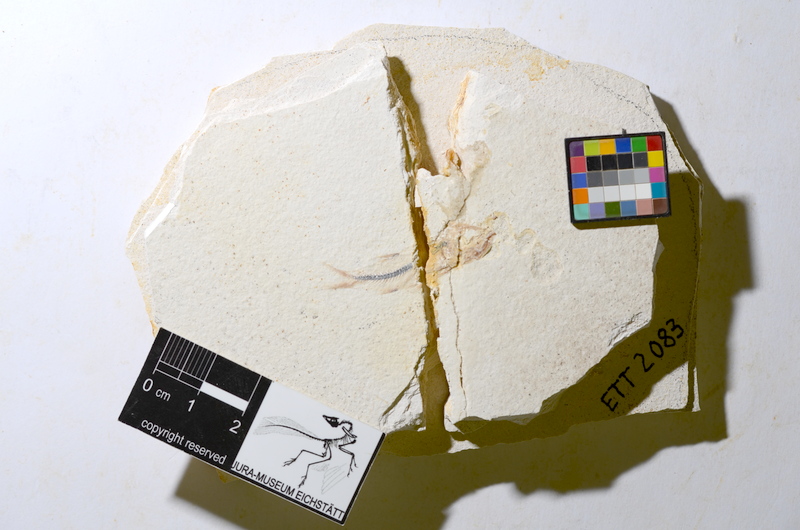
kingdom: Animalia
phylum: Chordata
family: Ascalaboidae
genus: Ebertichthys
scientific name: Ebertichthys ettlingensis
